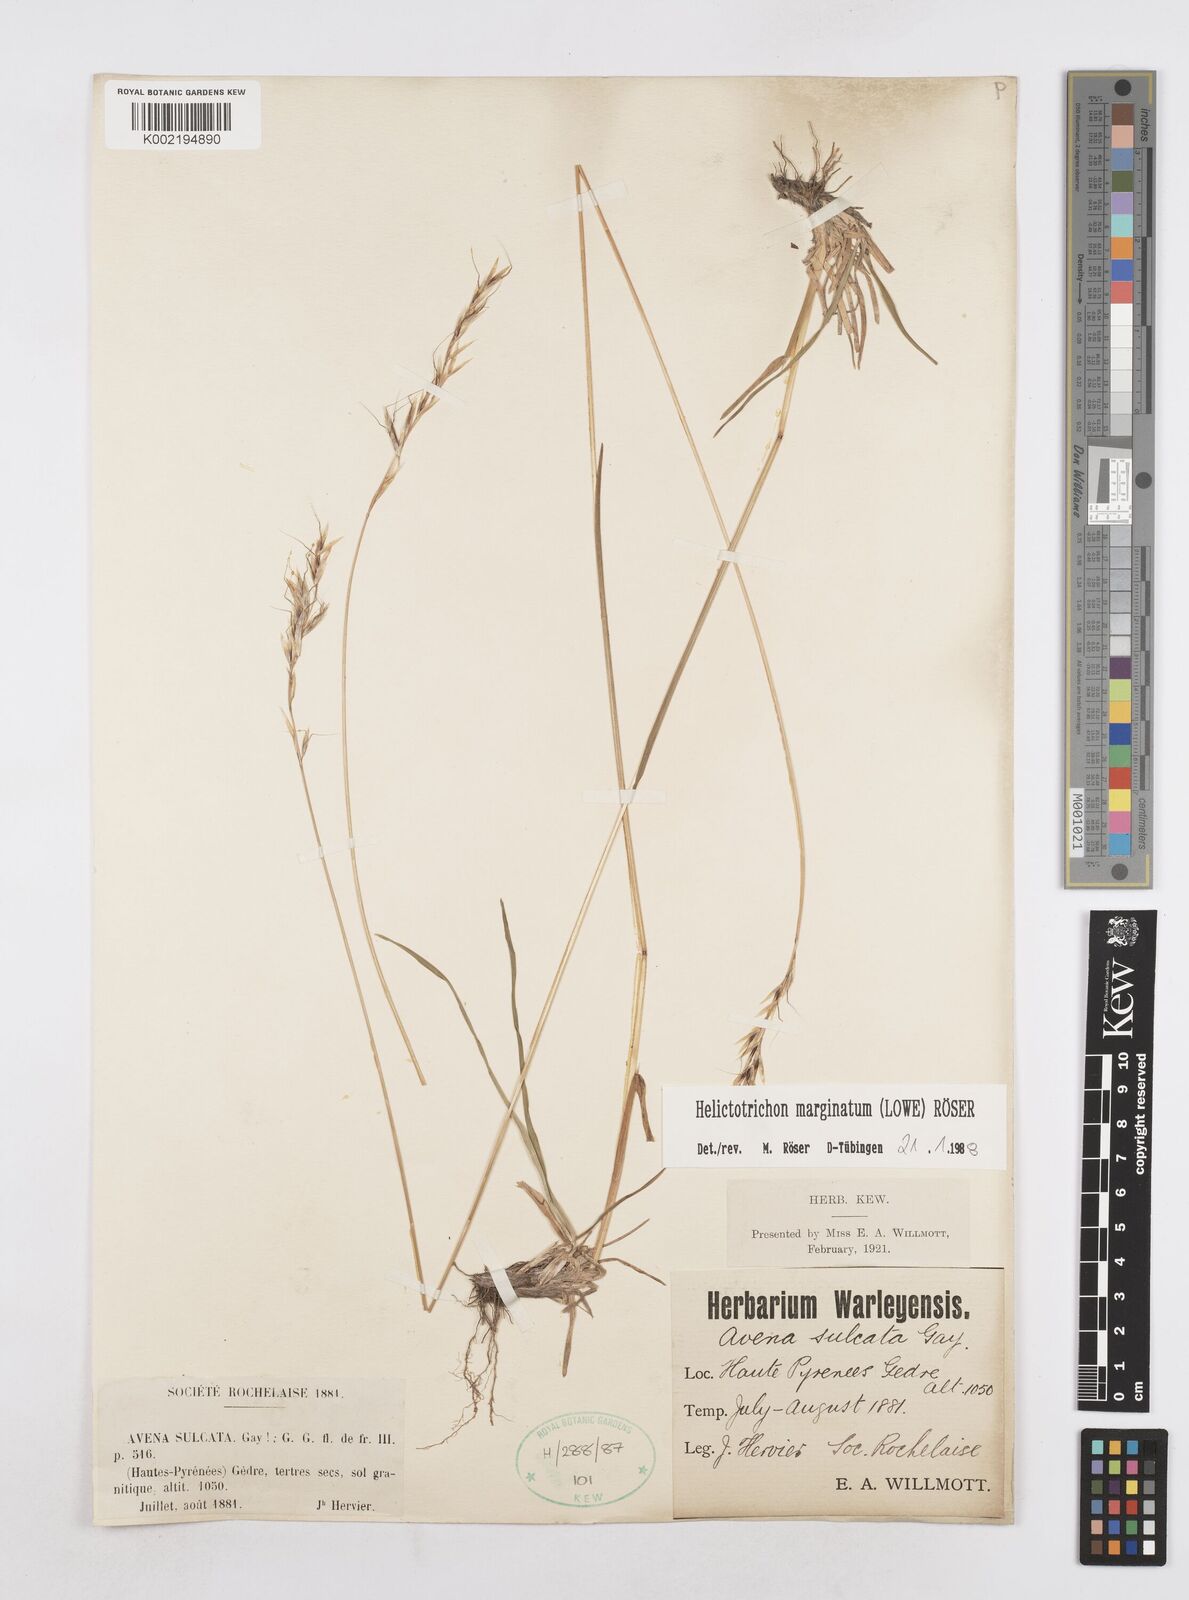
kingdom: Plantae
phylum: Tracheophyta
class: Liliopsida
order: Poales
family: Poaceae
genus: Helictotrichon
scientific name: Helictotrichon
